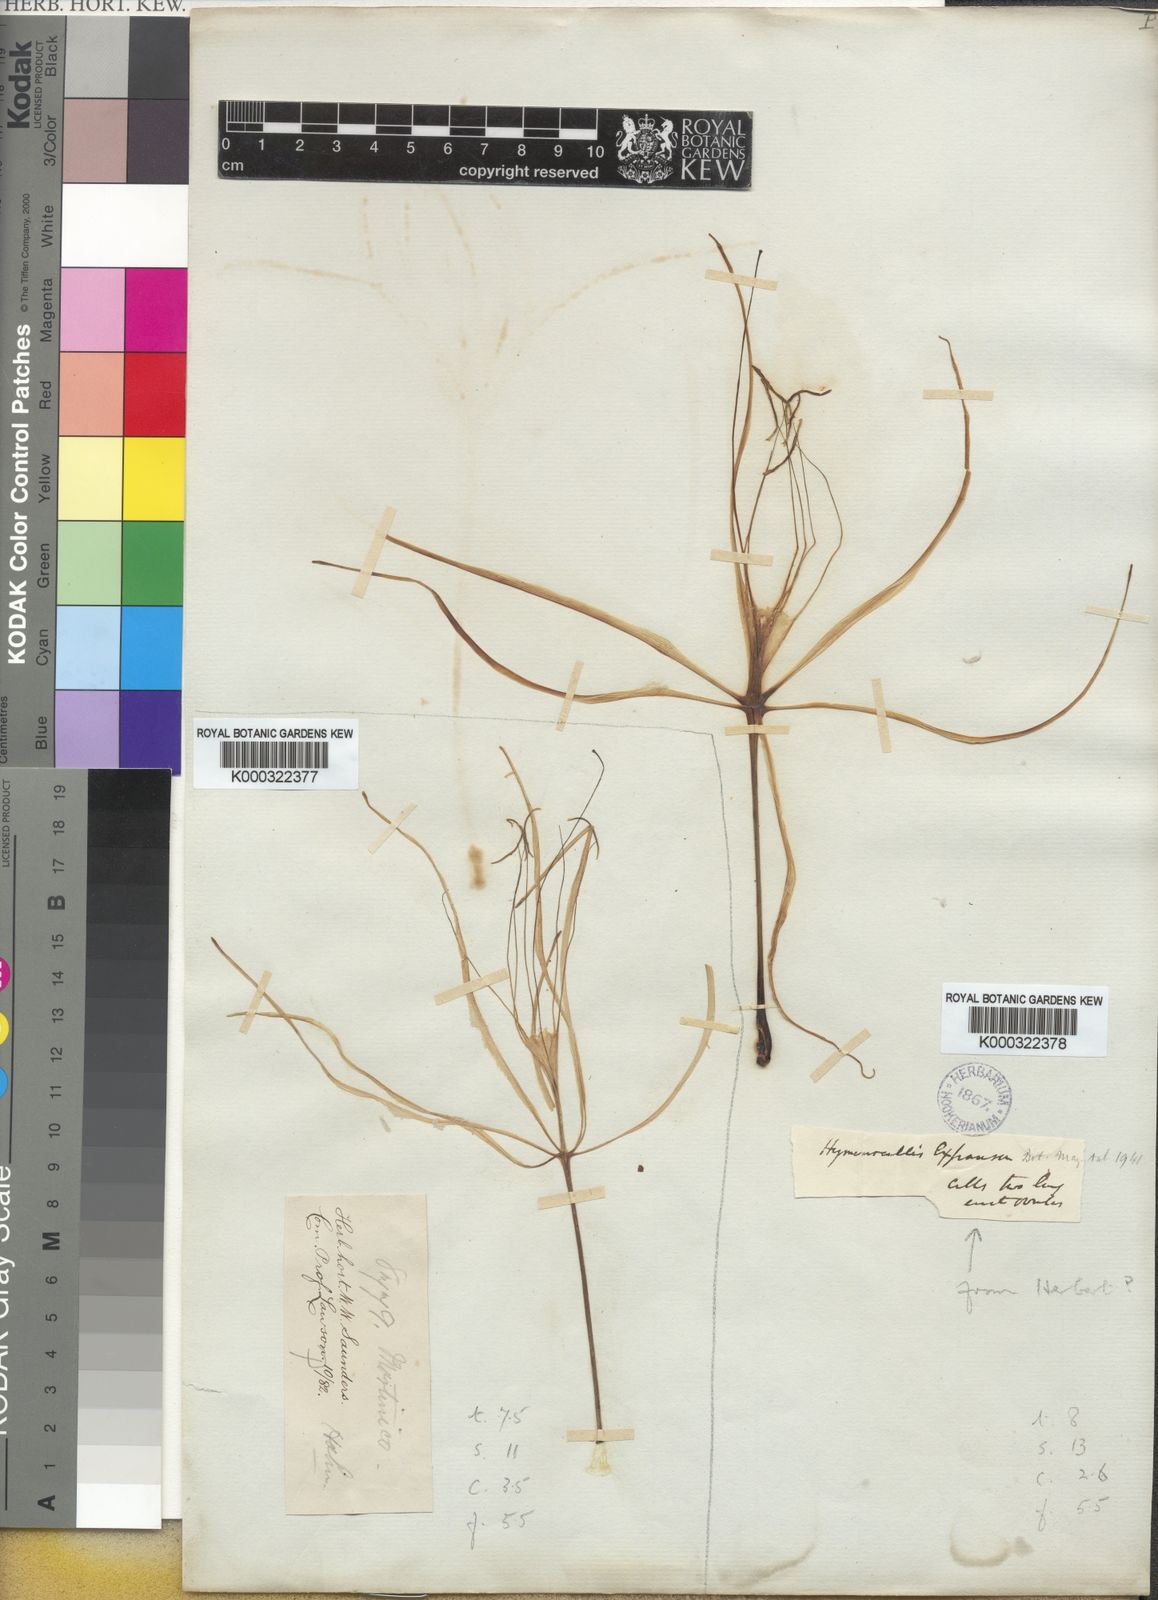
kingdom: Plantae
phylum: Tracheophyta
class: Liliopsida
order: Asparagales
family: Amaryllidaceae
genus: Hymenocallis
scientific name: Hymenocallis latifolia
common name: Cayman islands spider-lily
